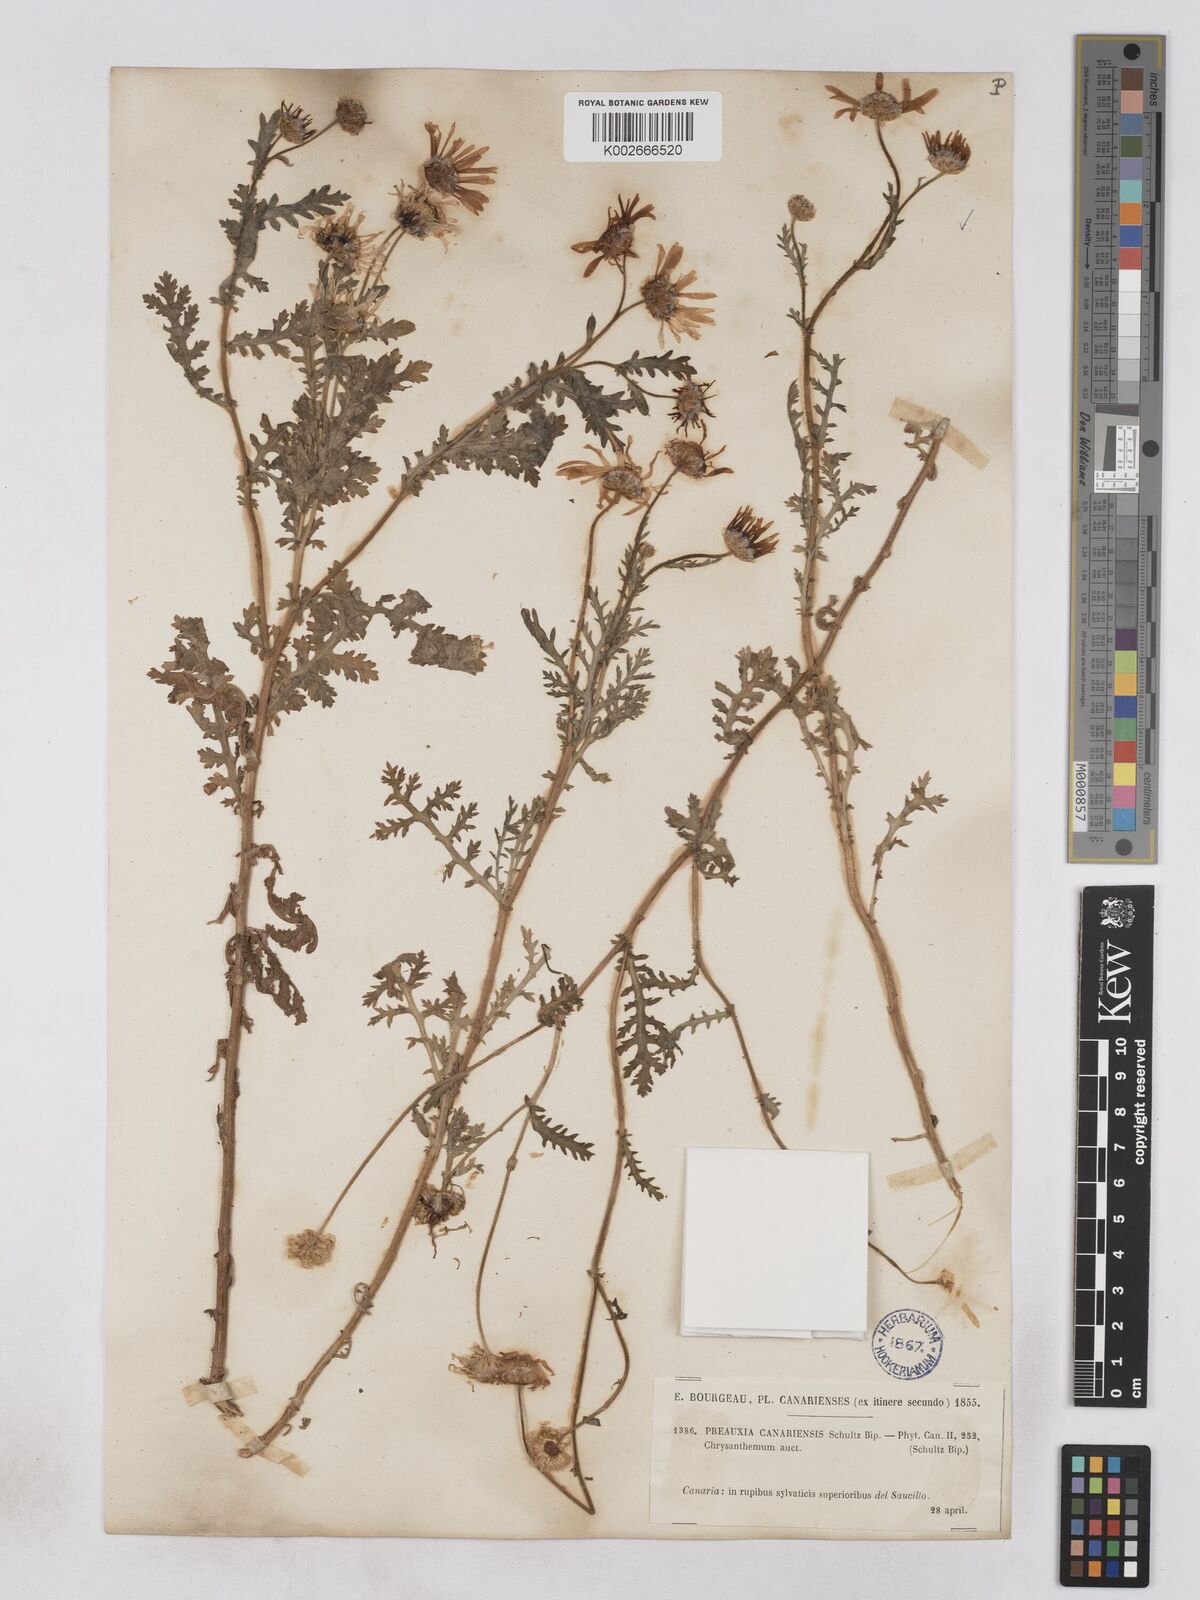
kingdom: Plantae
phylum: Tracheophyta
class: Magnoliopsida
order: Asterales
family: Asteraceae
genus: Argyranthemum
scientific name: Argyranthemum adauctum
